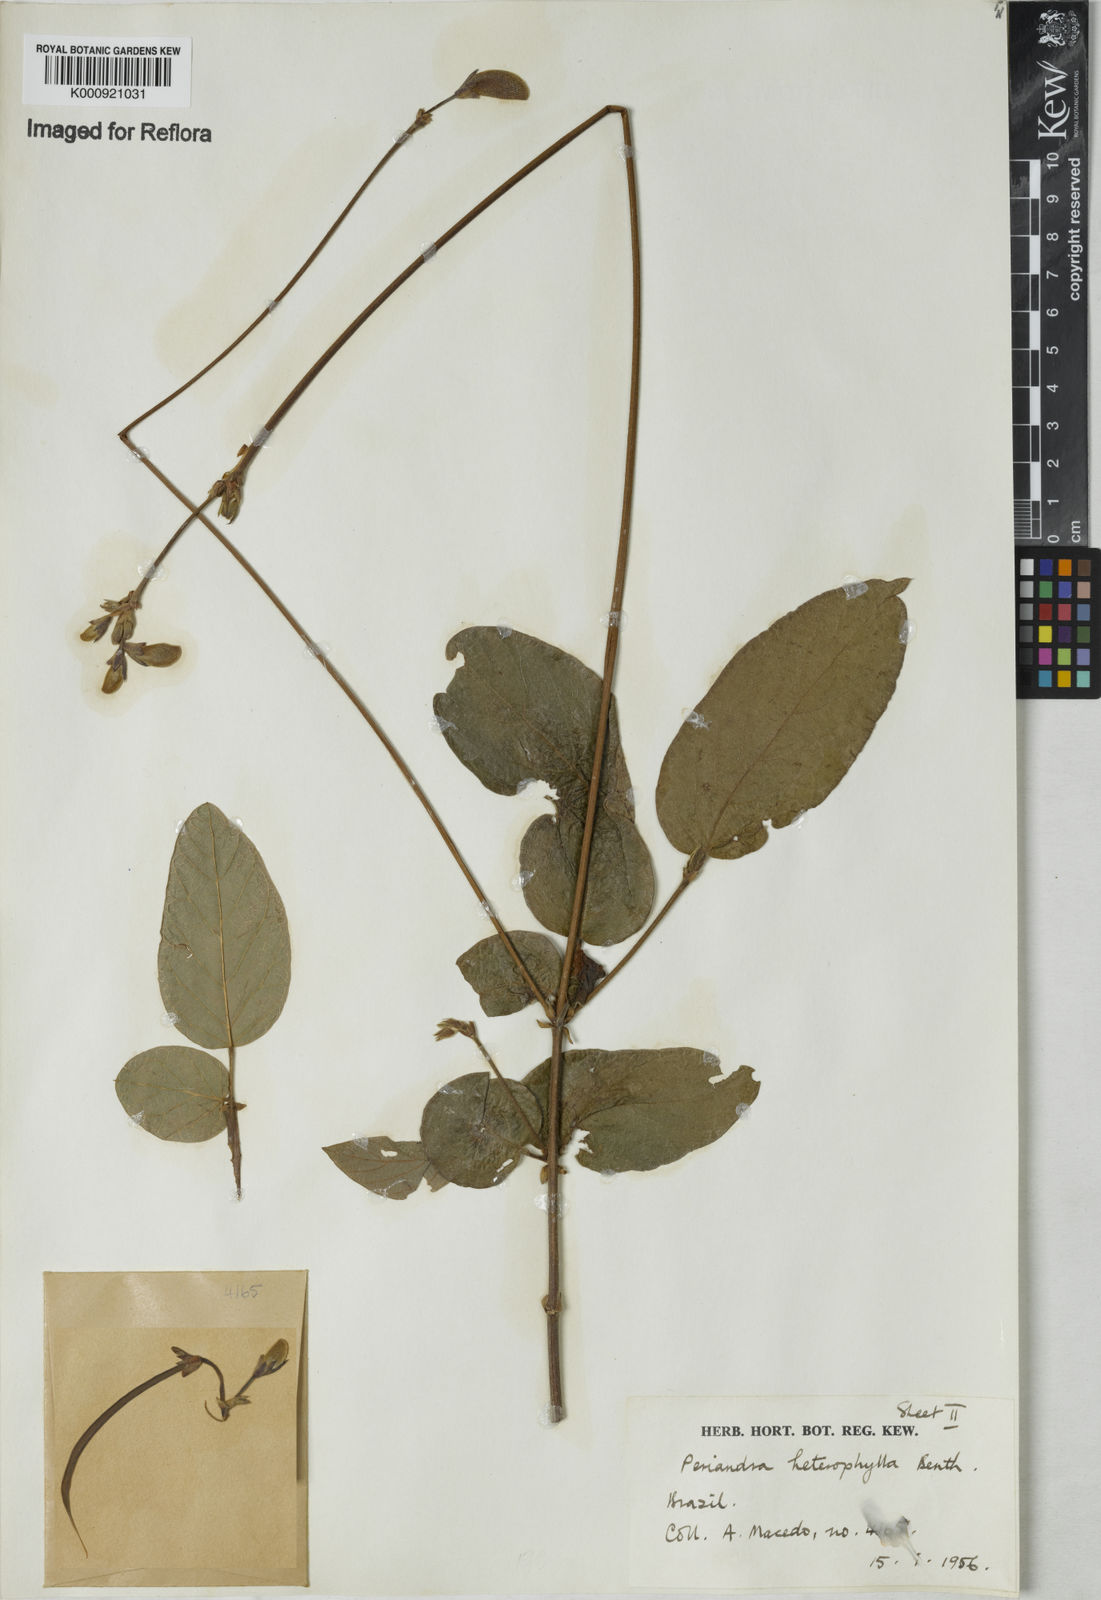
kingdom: Plantae
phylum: Tracheophyta
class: Magnoliopsida
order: Fabales
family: Fabaceae
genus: Periandra
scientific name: Periandra heterophylla
